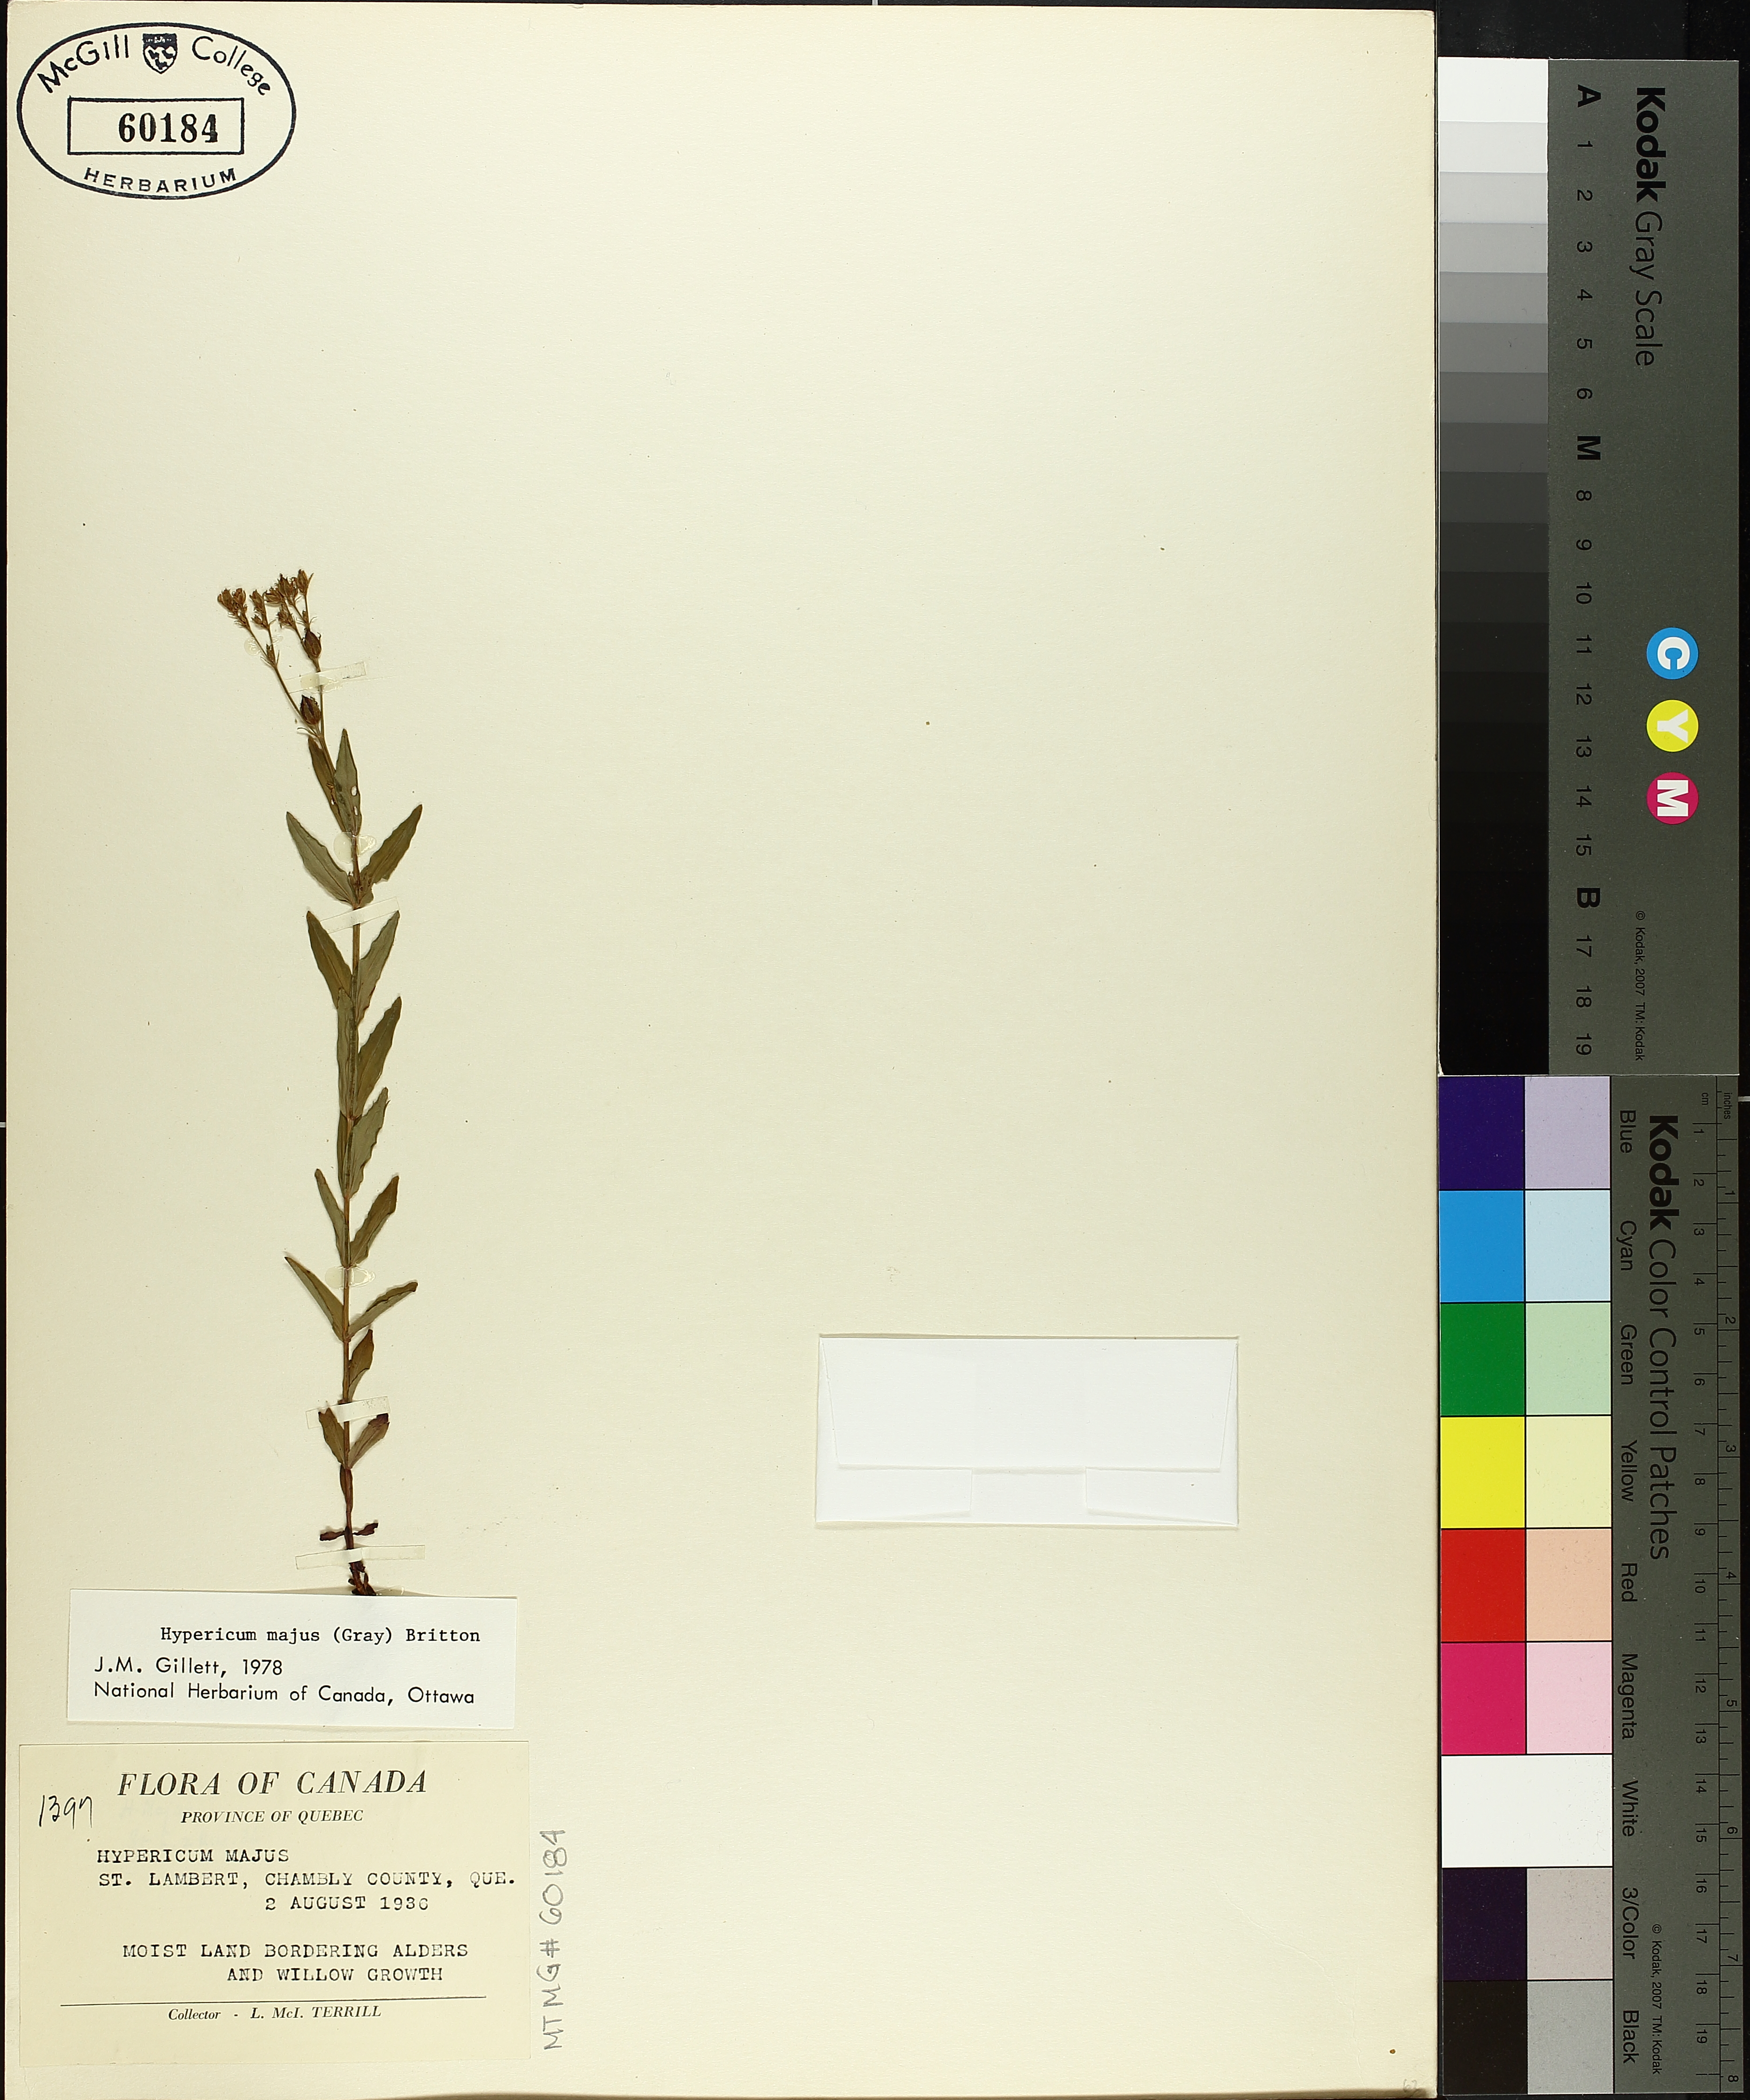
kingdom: Plantae
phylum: Tracheophyta
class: Magnoliopsida
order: Malpighiales
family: Hypericaceae
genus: Hypericum
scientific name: Hypericum majus
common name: Greater canadian st. john's-wort
